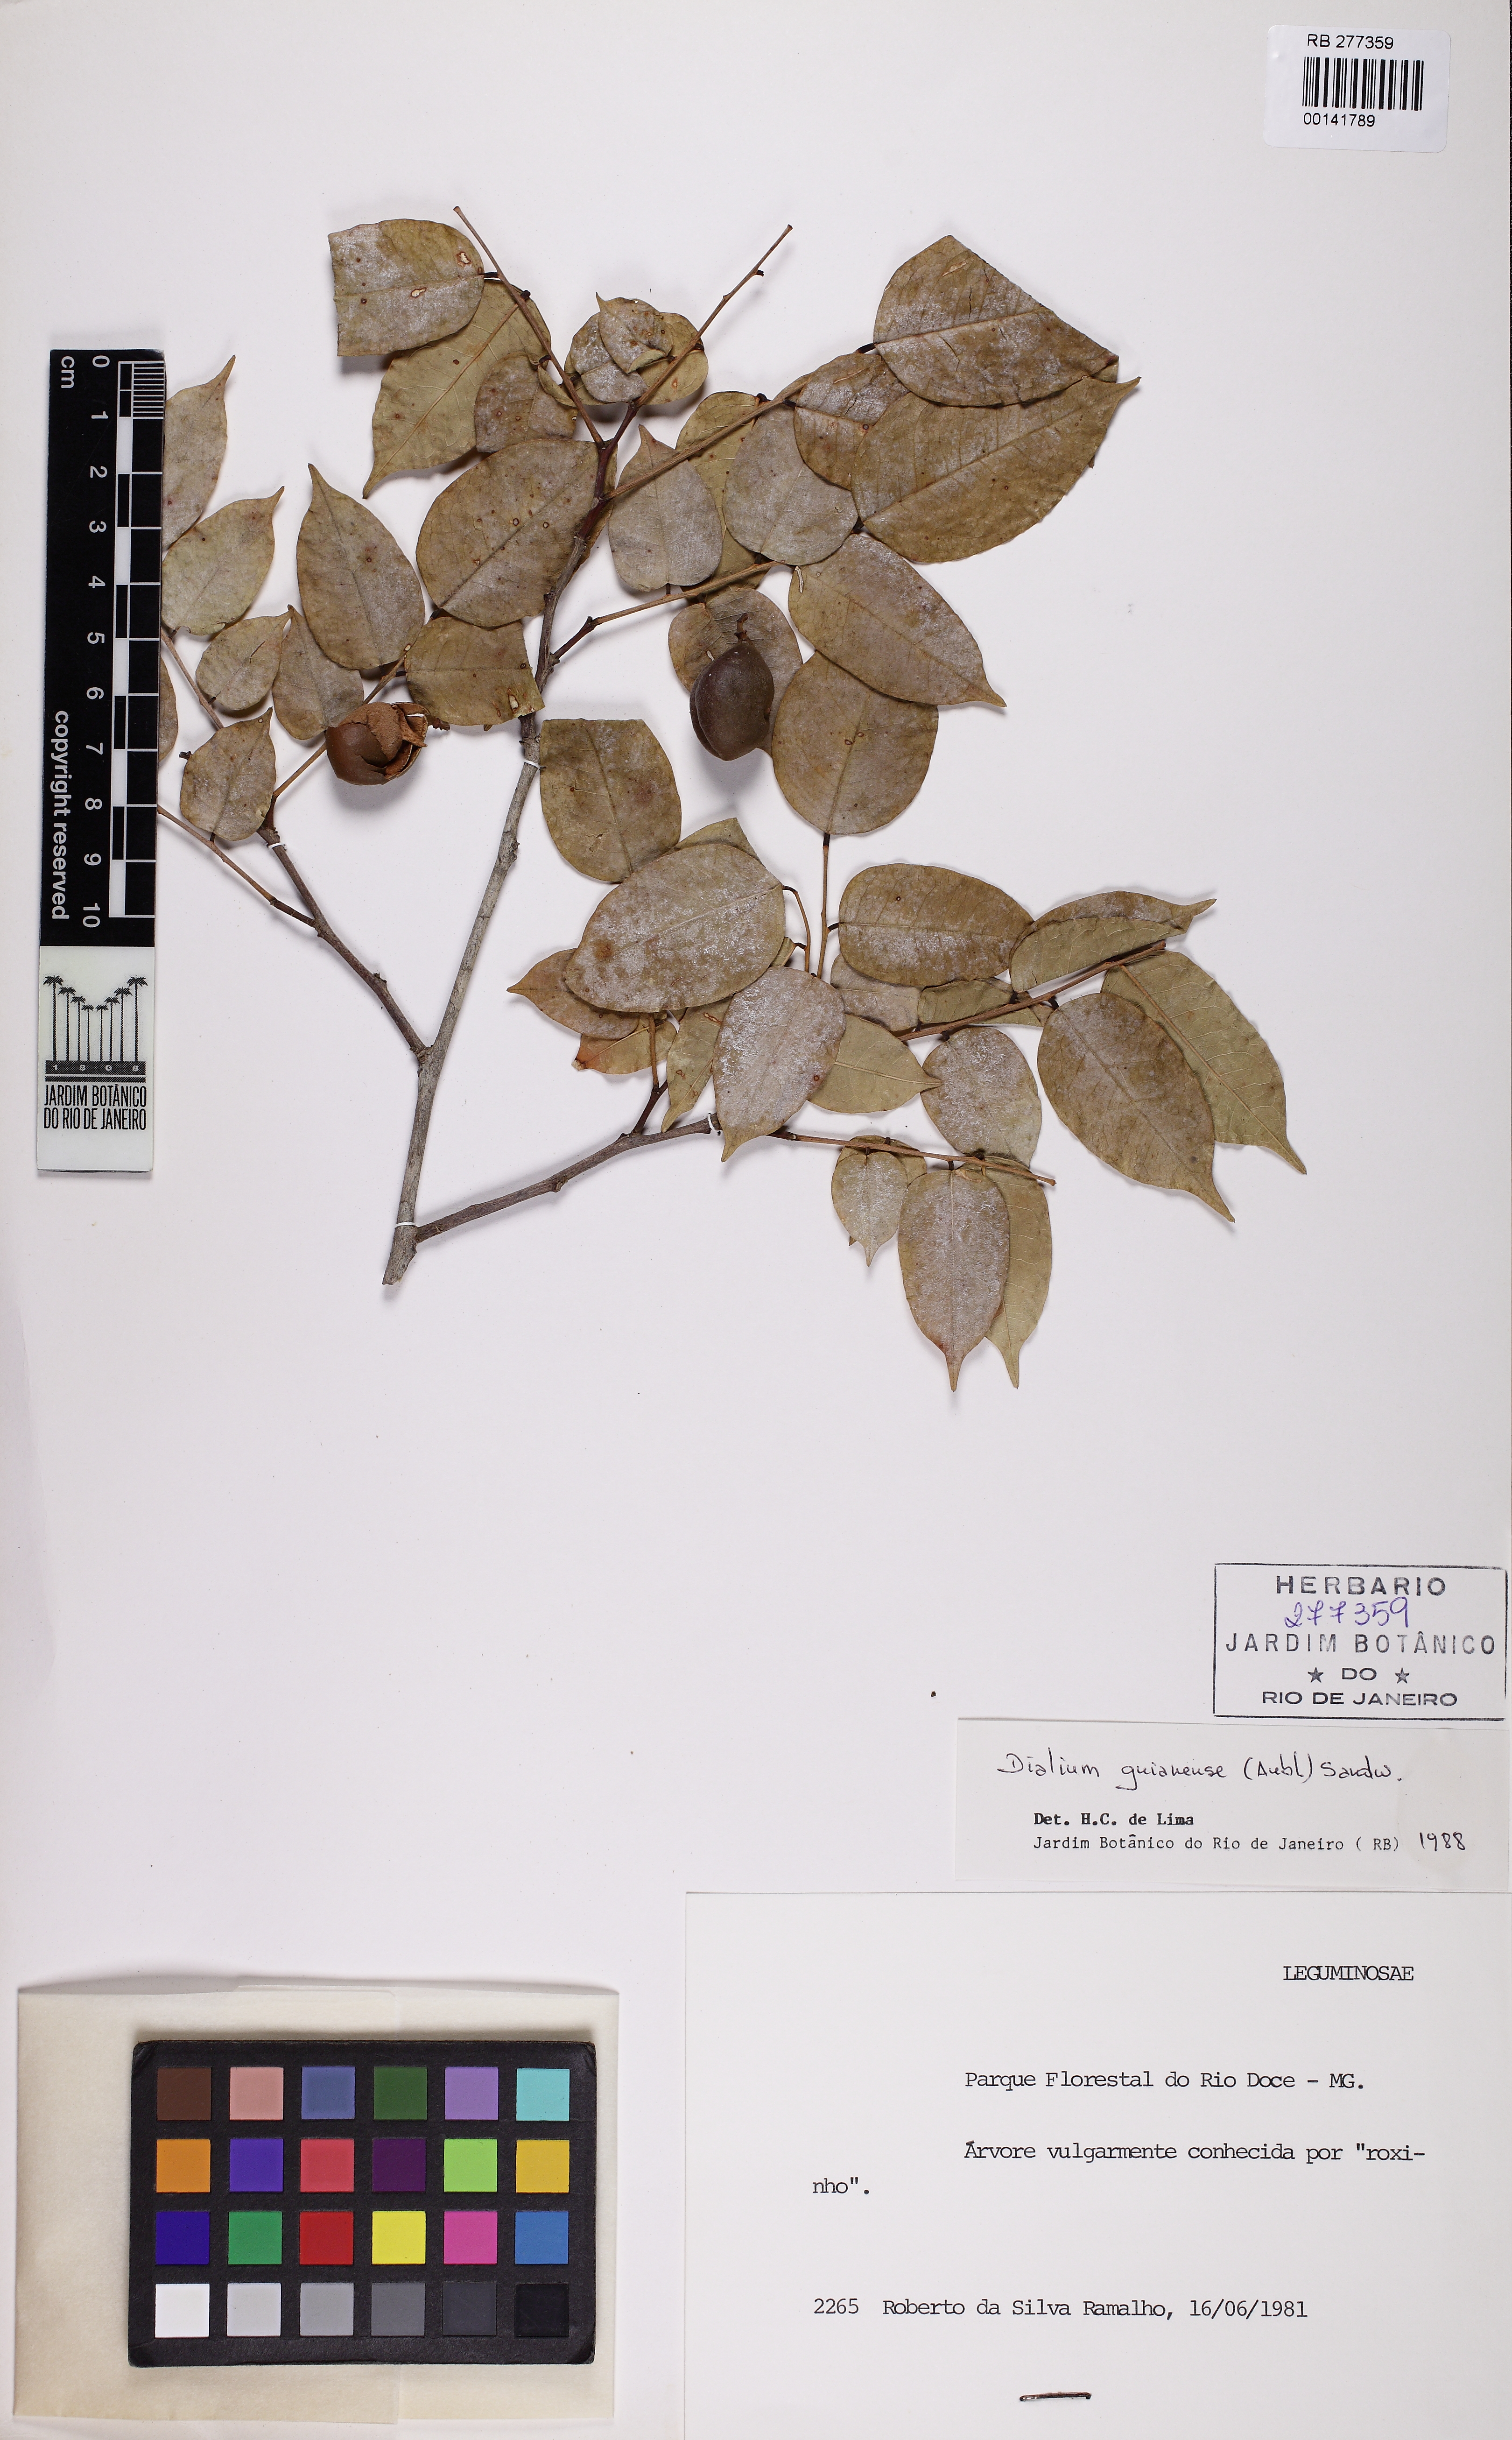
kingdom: Plantae
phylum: Tracheophyta
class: Magnoliopsida
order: Fabales
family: Fabaceae
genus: Dialium
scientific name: Dialium guianense
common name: Ironwood
